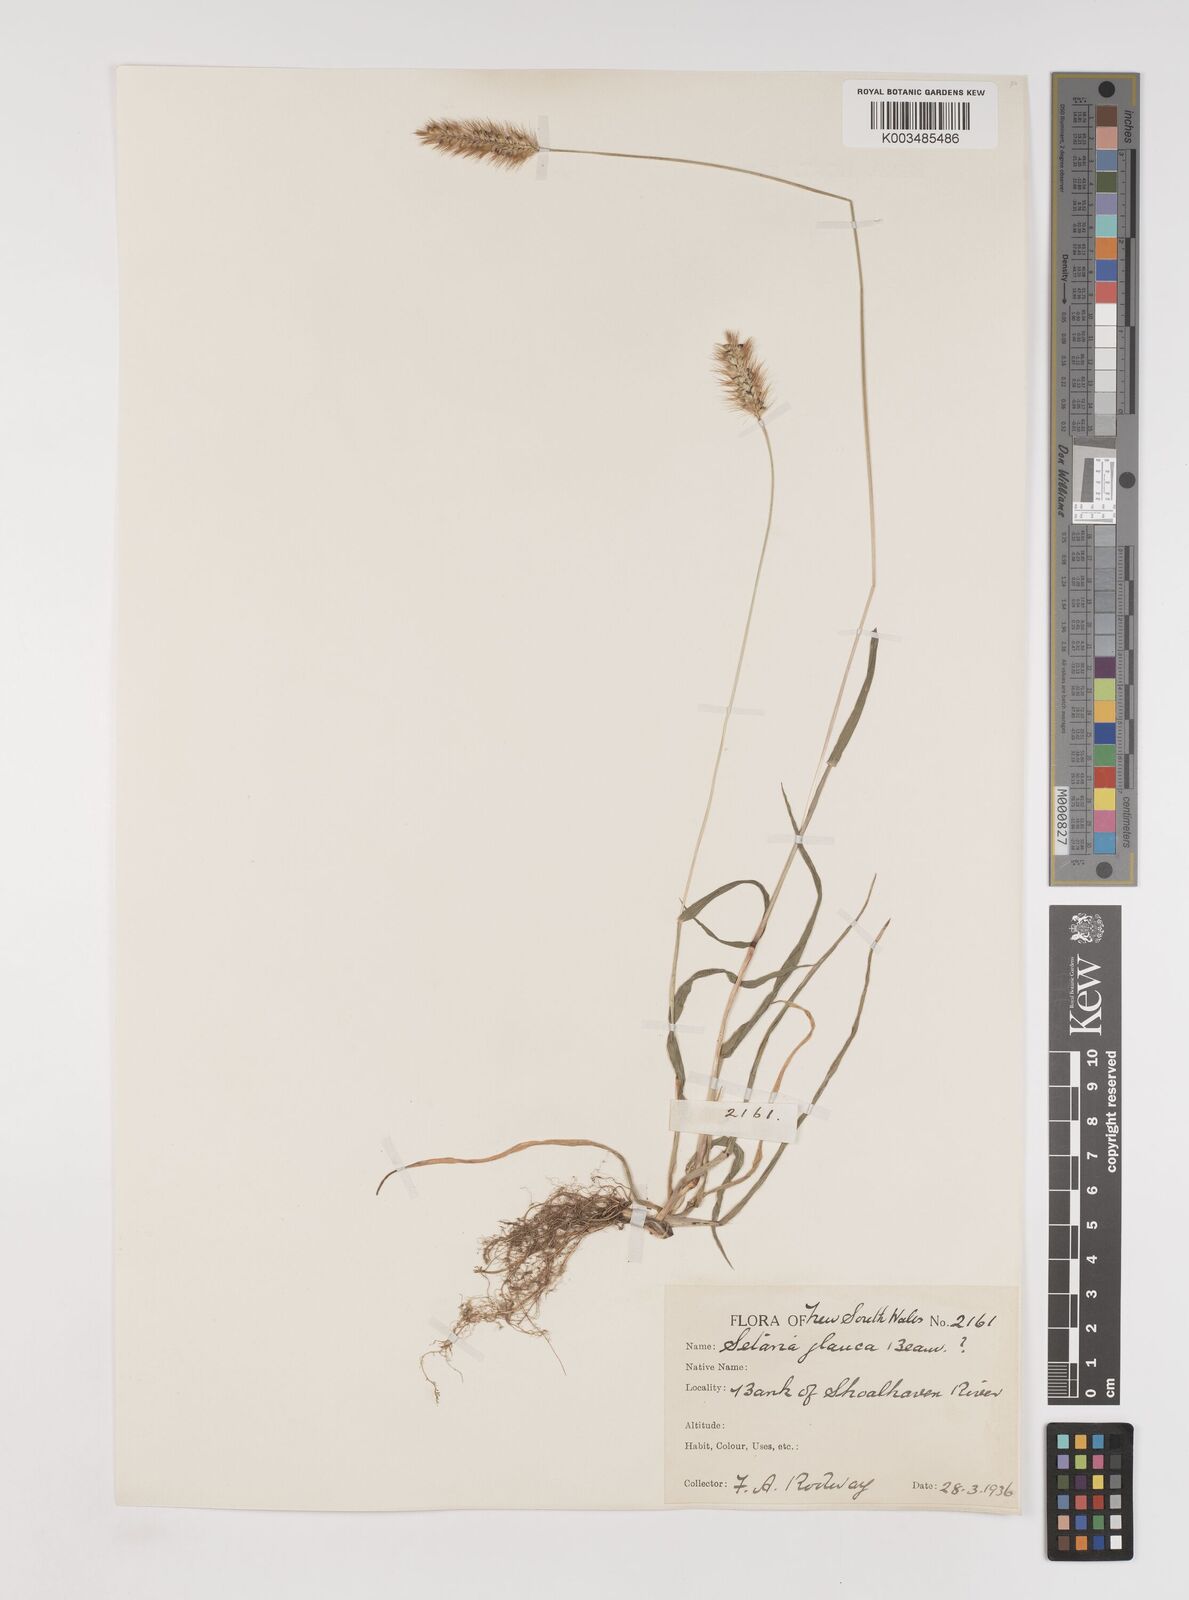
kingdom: Plantae
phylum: Tracheophyta
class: Liliopsida
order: Poales
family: Poaceae
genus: Setaria
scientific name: Setaria pumila
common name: Yellow bristle-grass
